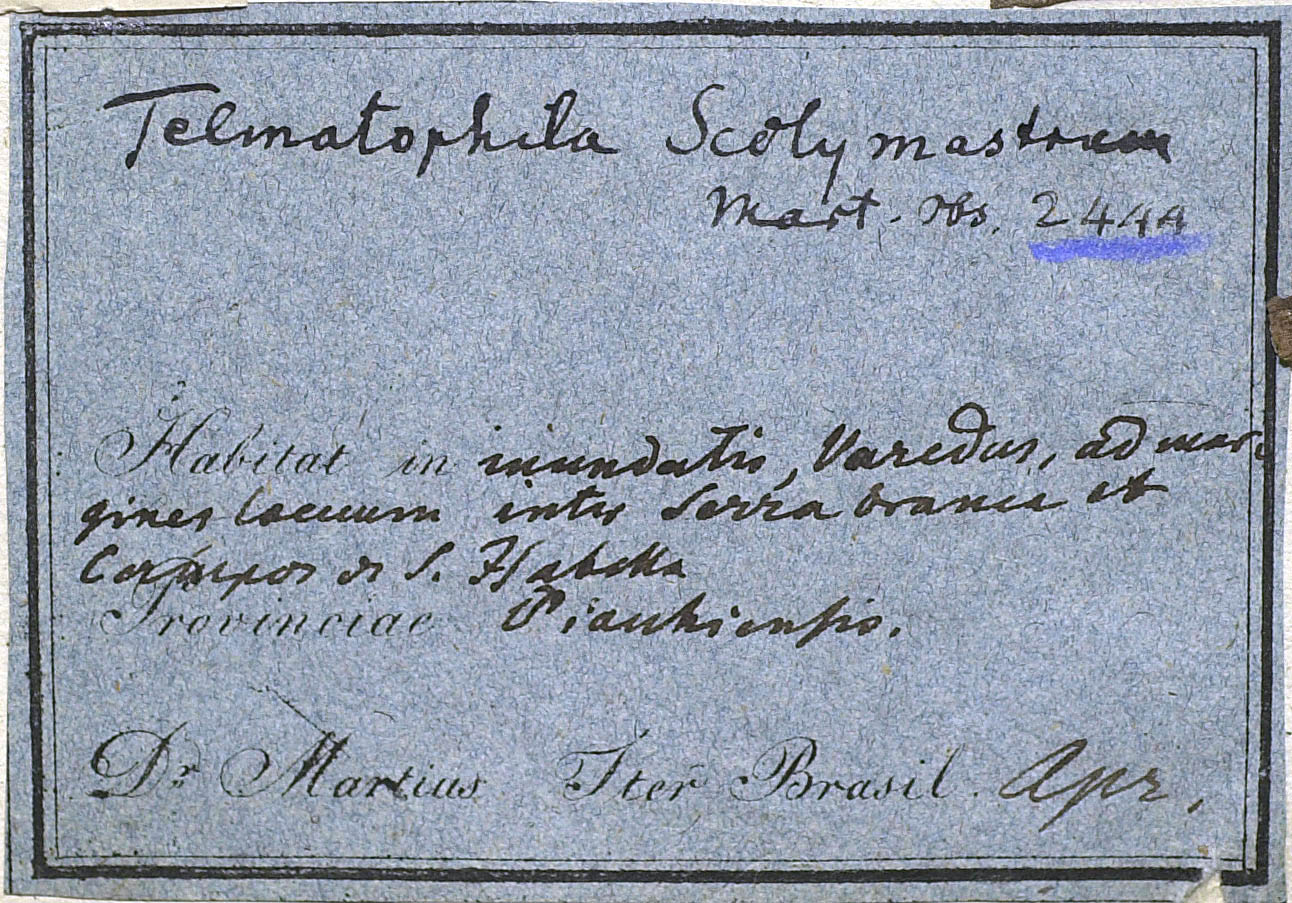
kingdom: Plantae
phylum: Tracheophyta
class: Magnoliopsida
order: Asterales
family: Asteraceae
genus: Telmatophila
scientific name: Telmatophila scolymastrum
